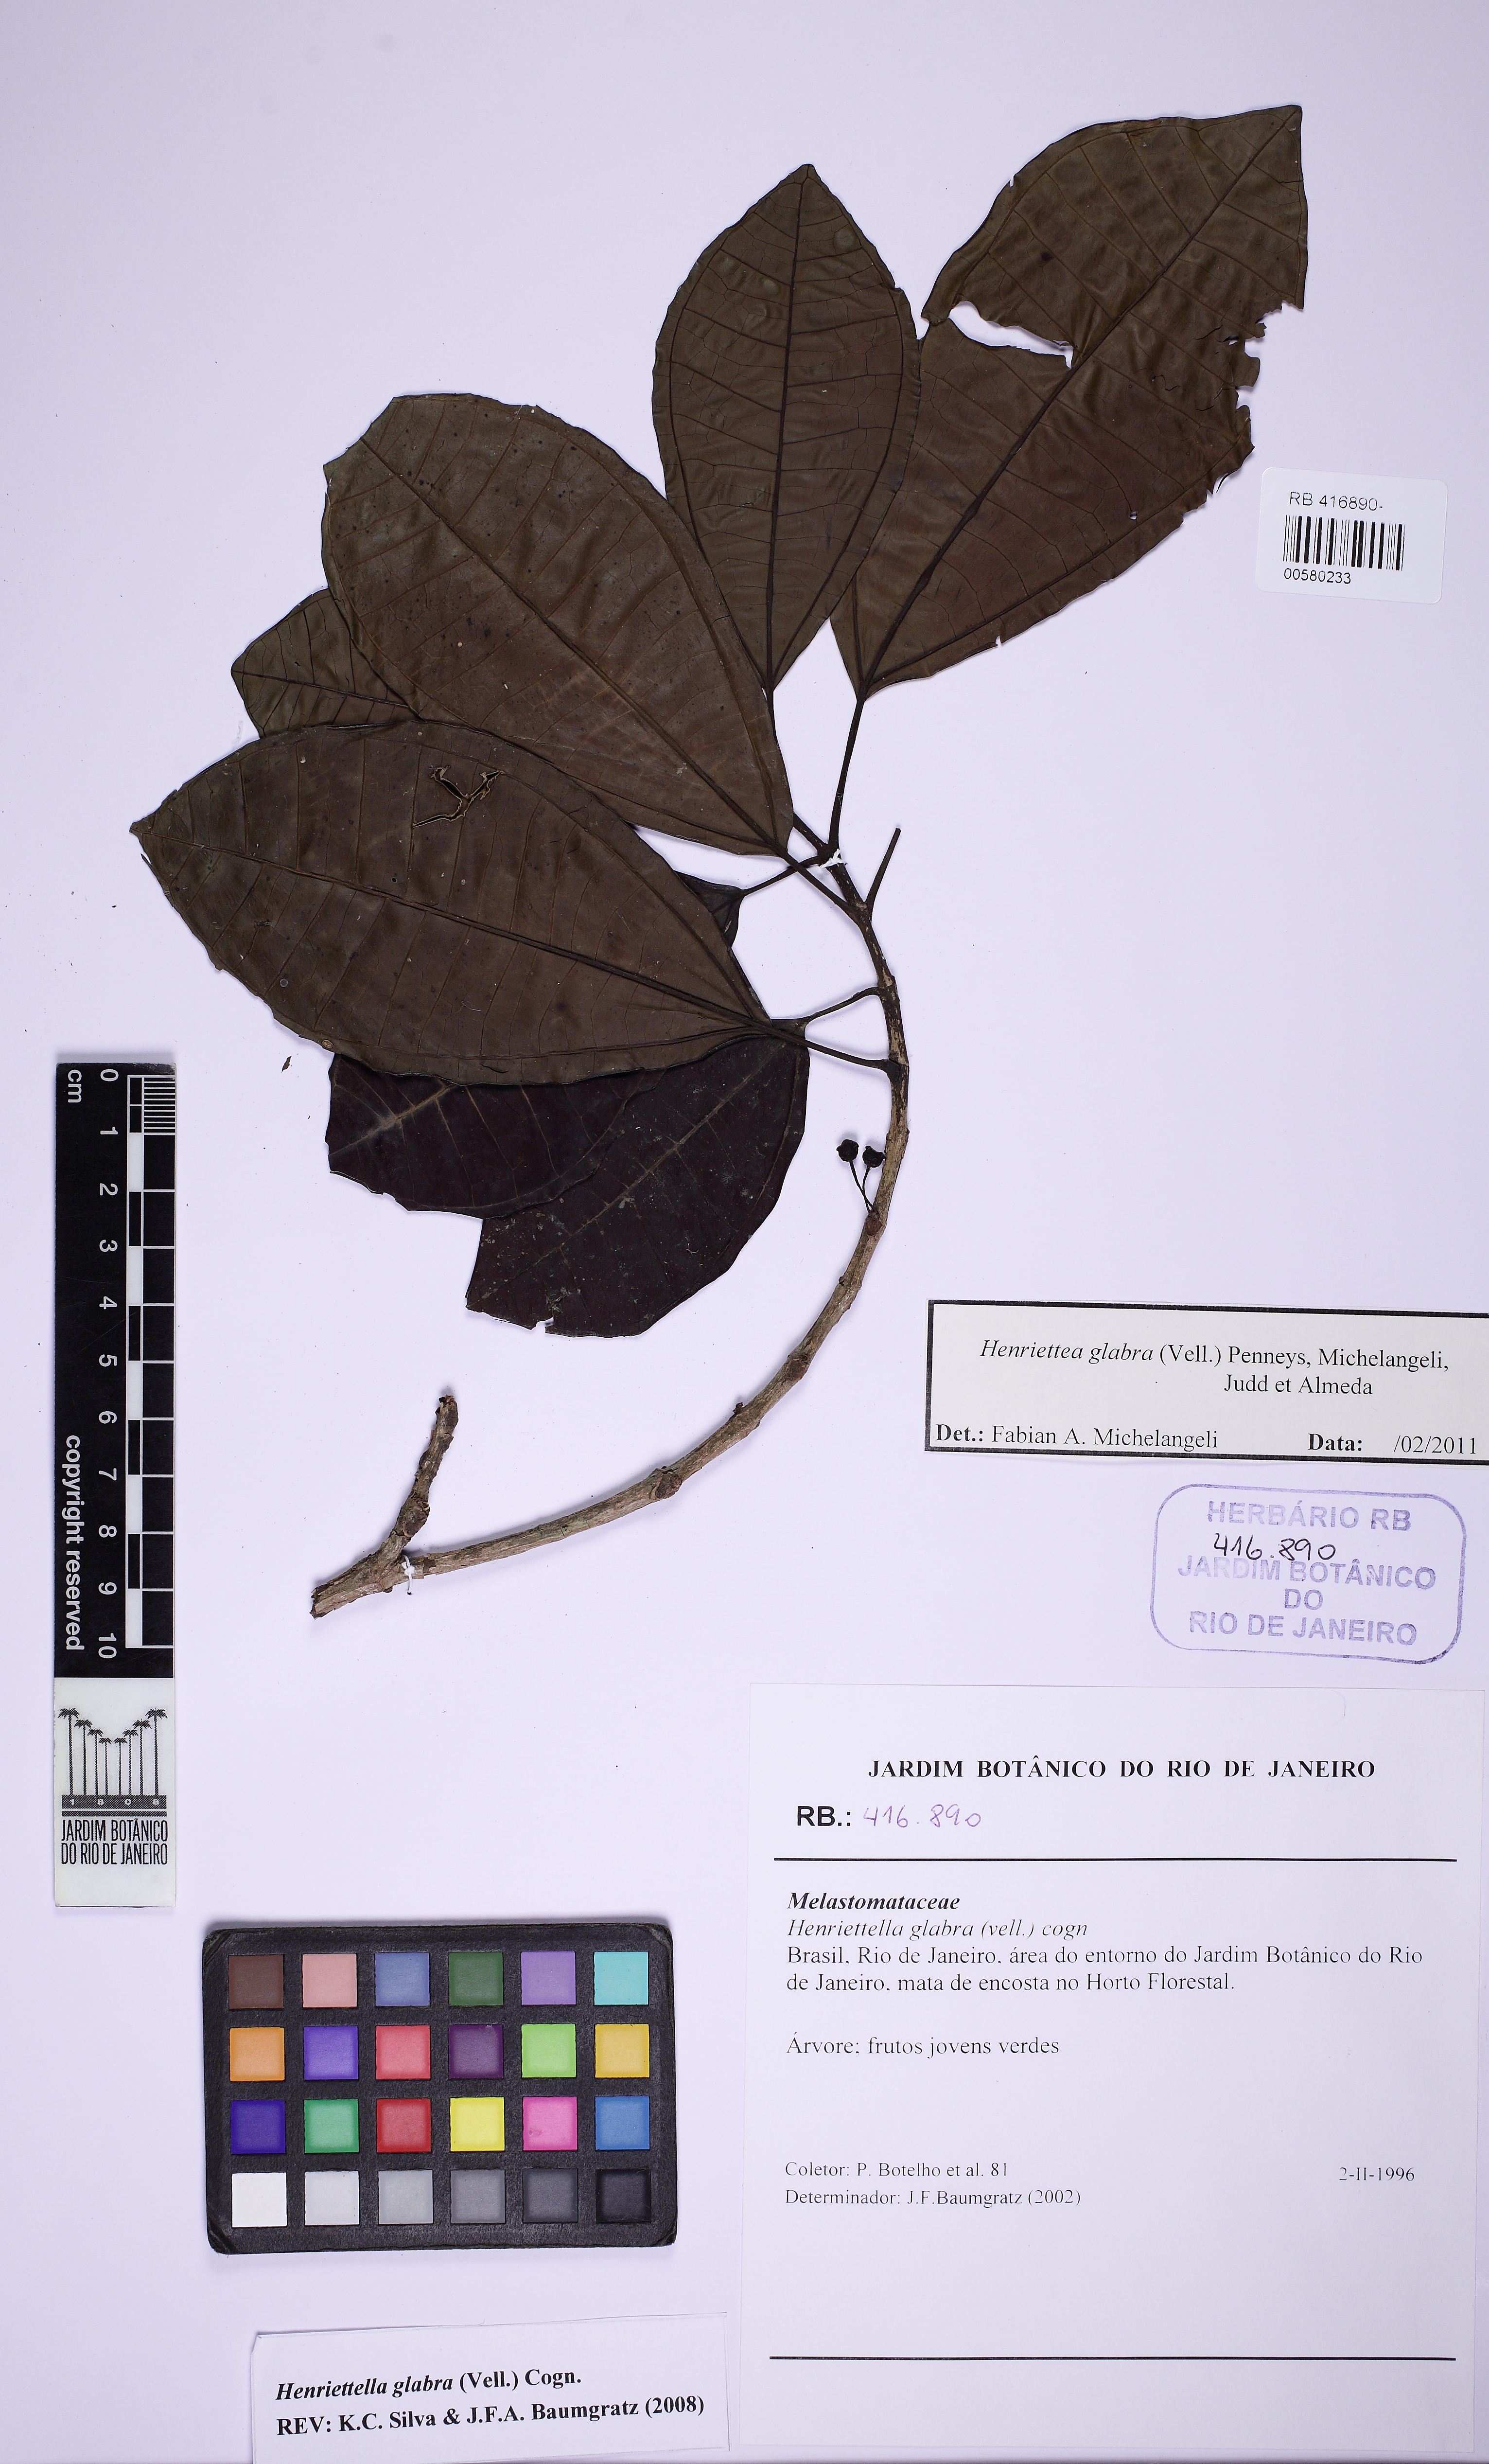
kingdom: Plantae
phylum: Tracheophyta
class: Magnoliopsida
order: Myrtales
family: Melastomataceae
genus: Henriettea
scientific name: Henriettea umbelluliflora
